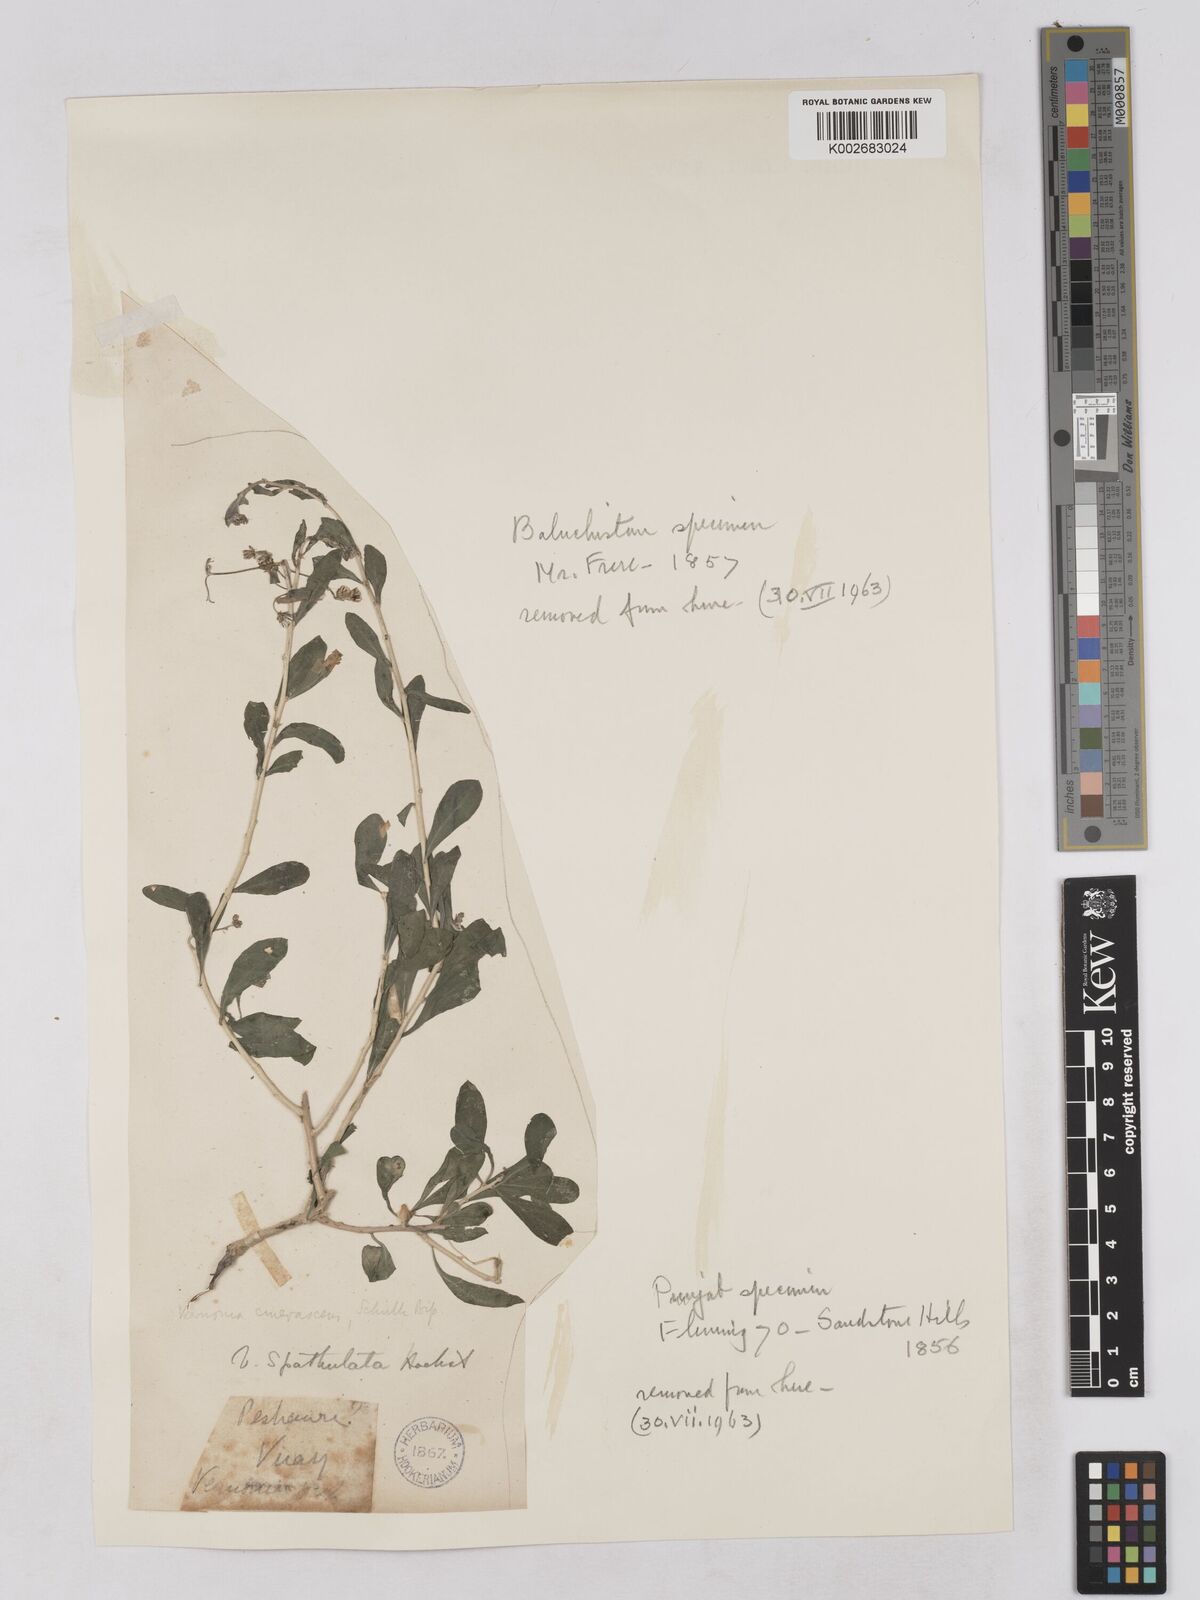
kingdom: Plantae
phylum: Tracheophyta
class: Magnoliopsida
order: Asterales
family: Asteraceae
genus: Orbivestus
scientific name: Orbivestus cinerascens
